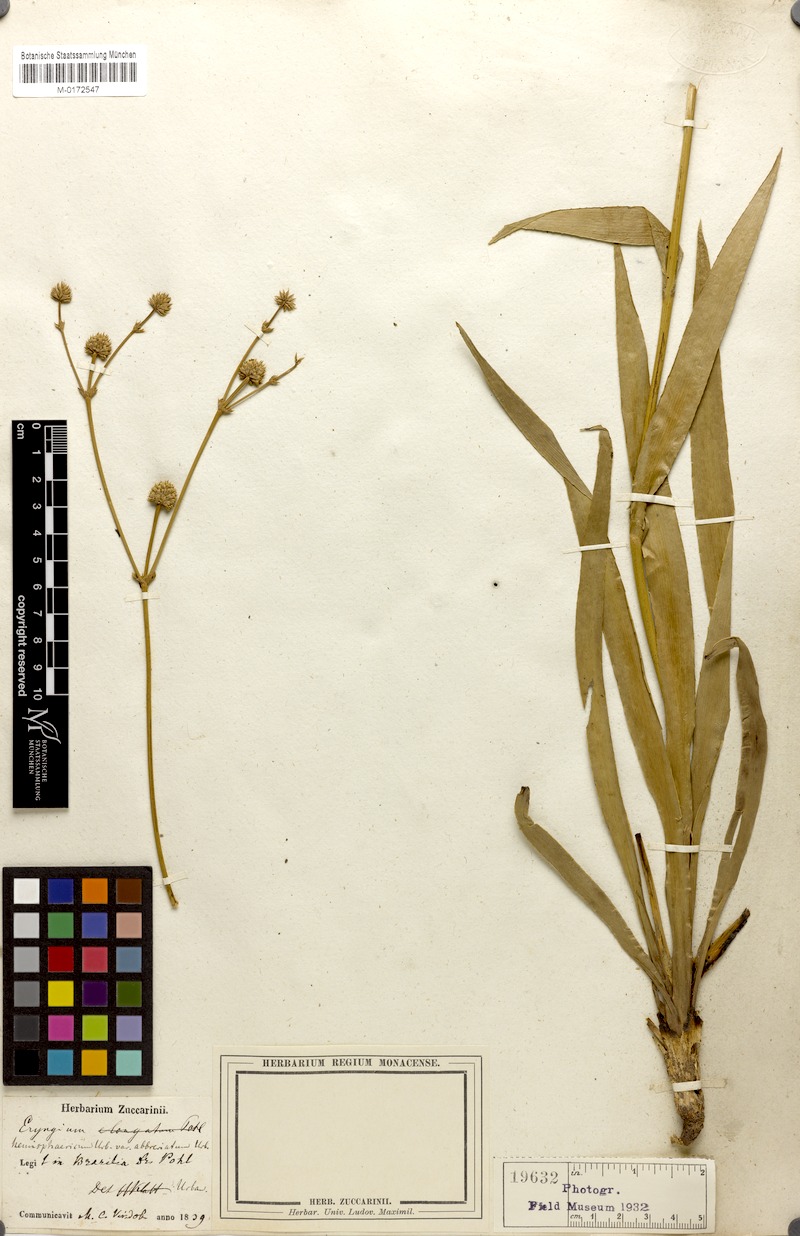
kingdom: Plantae
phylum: Tracheophyta
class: Magnoliopsida
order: Apiales
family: Apiaceae
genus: Eryngium
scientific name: Eryngium hemisphaericum
